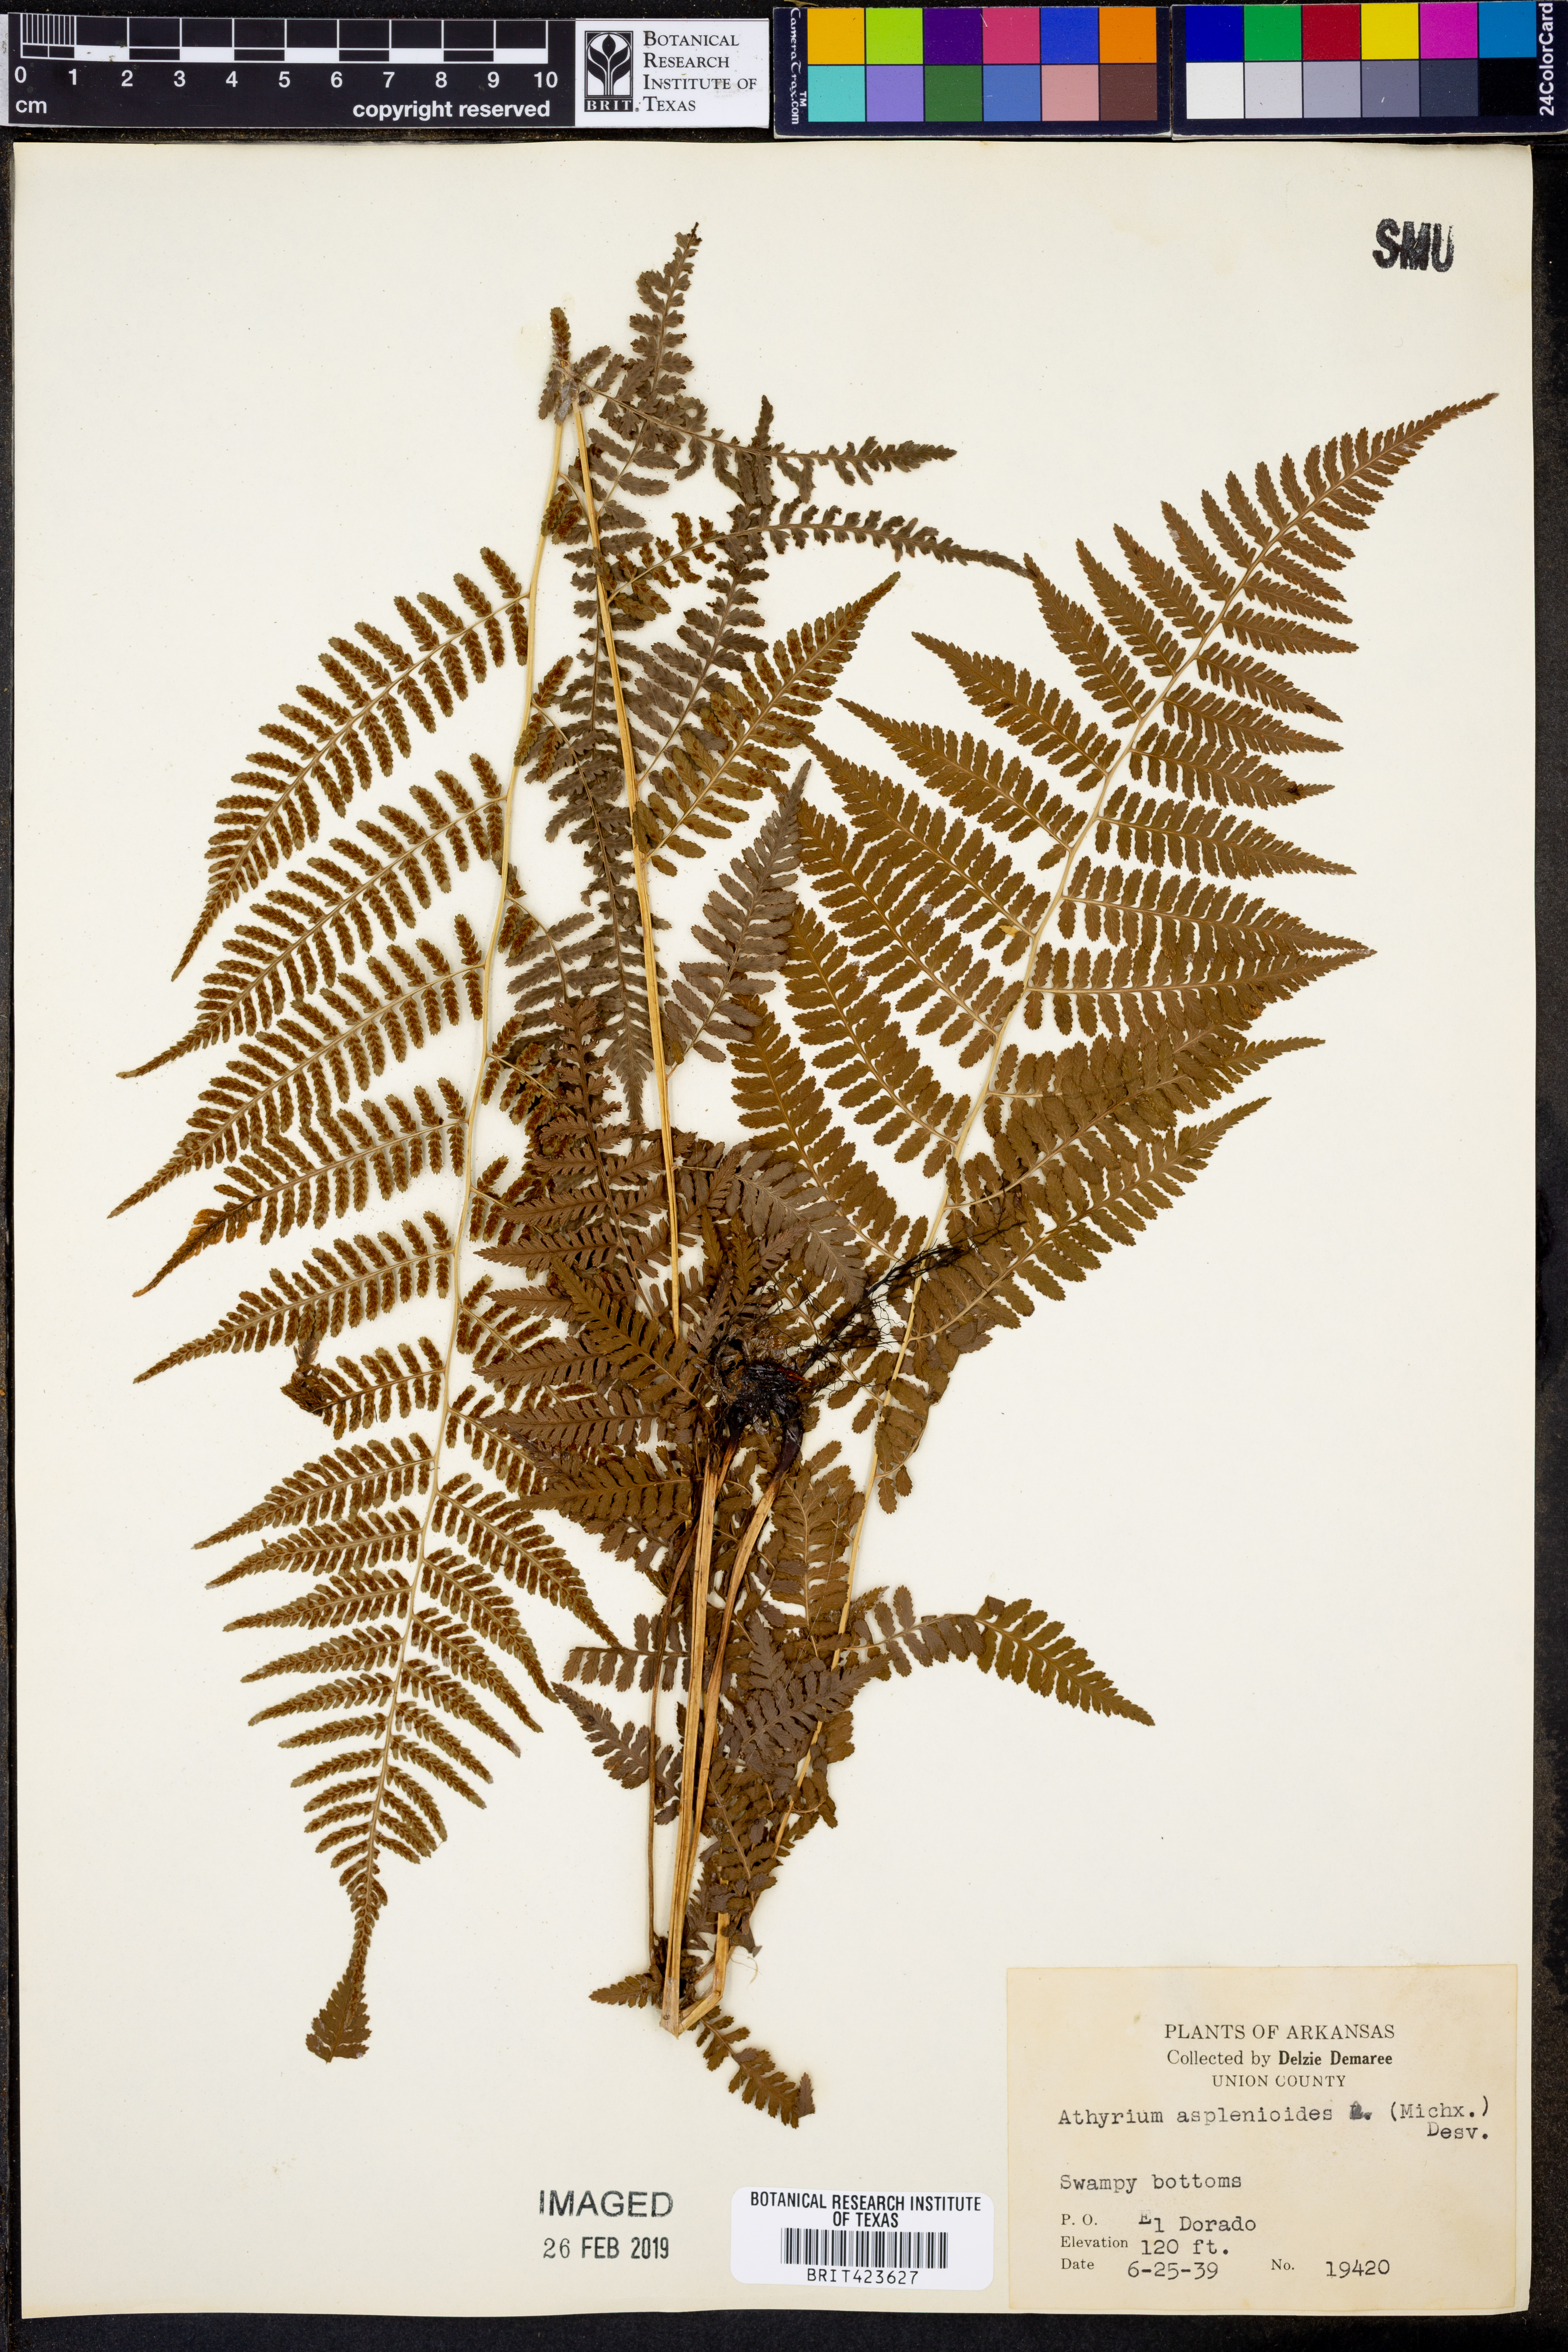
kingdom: Plantae
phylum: Tracheophyta
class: Polypodiopsida
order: Polypodiales
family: Athyriaceae
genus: Athyrium
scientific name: Athyrium asplenioides
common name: Southern lady fern
